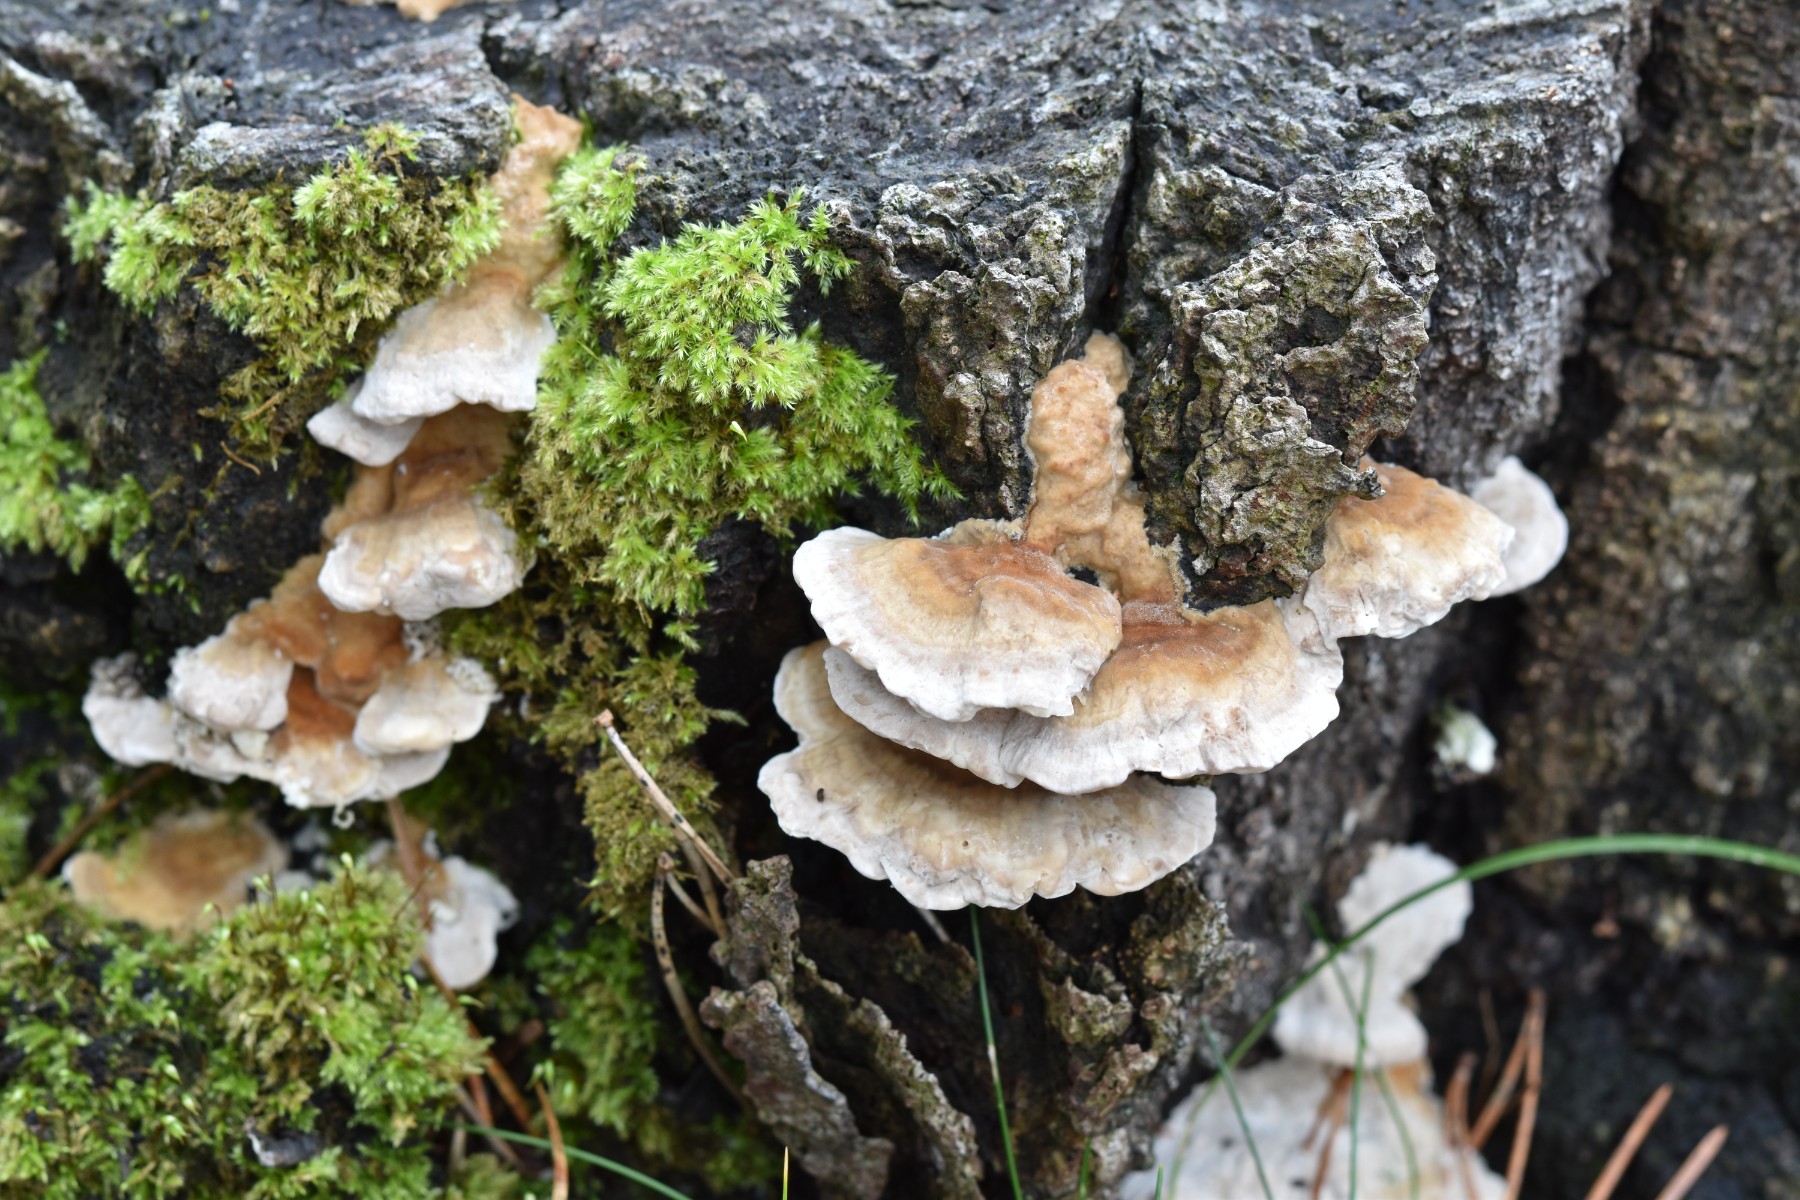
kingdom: Fungi
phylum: Basidiomycota
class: Agaricomycetes
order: Polyporales
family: Polyporaceae
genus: Trametes
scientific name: Trametes ochracea
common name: bæltet læderporesvamp
